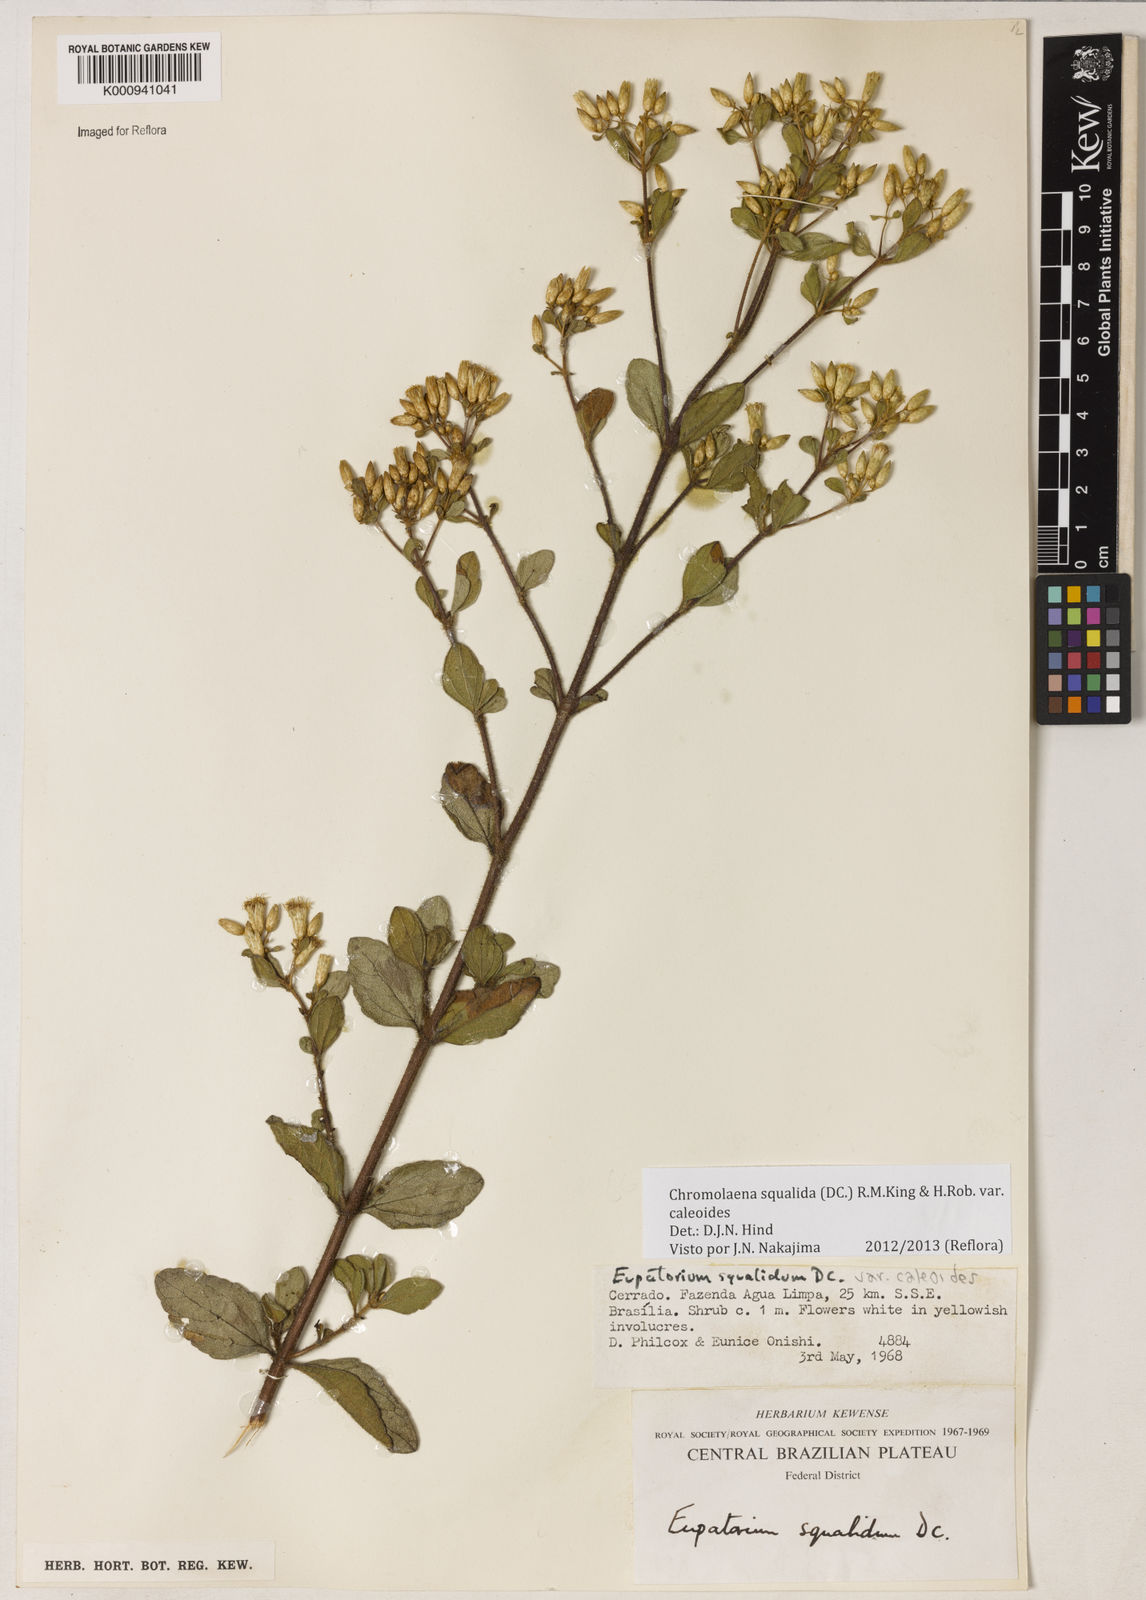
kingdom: Plantae
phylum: Tracheophyta
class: Magnoliopsida
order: Asterales
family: Asteraceae
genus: Chromolaena
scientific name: Chromolaena squalida
